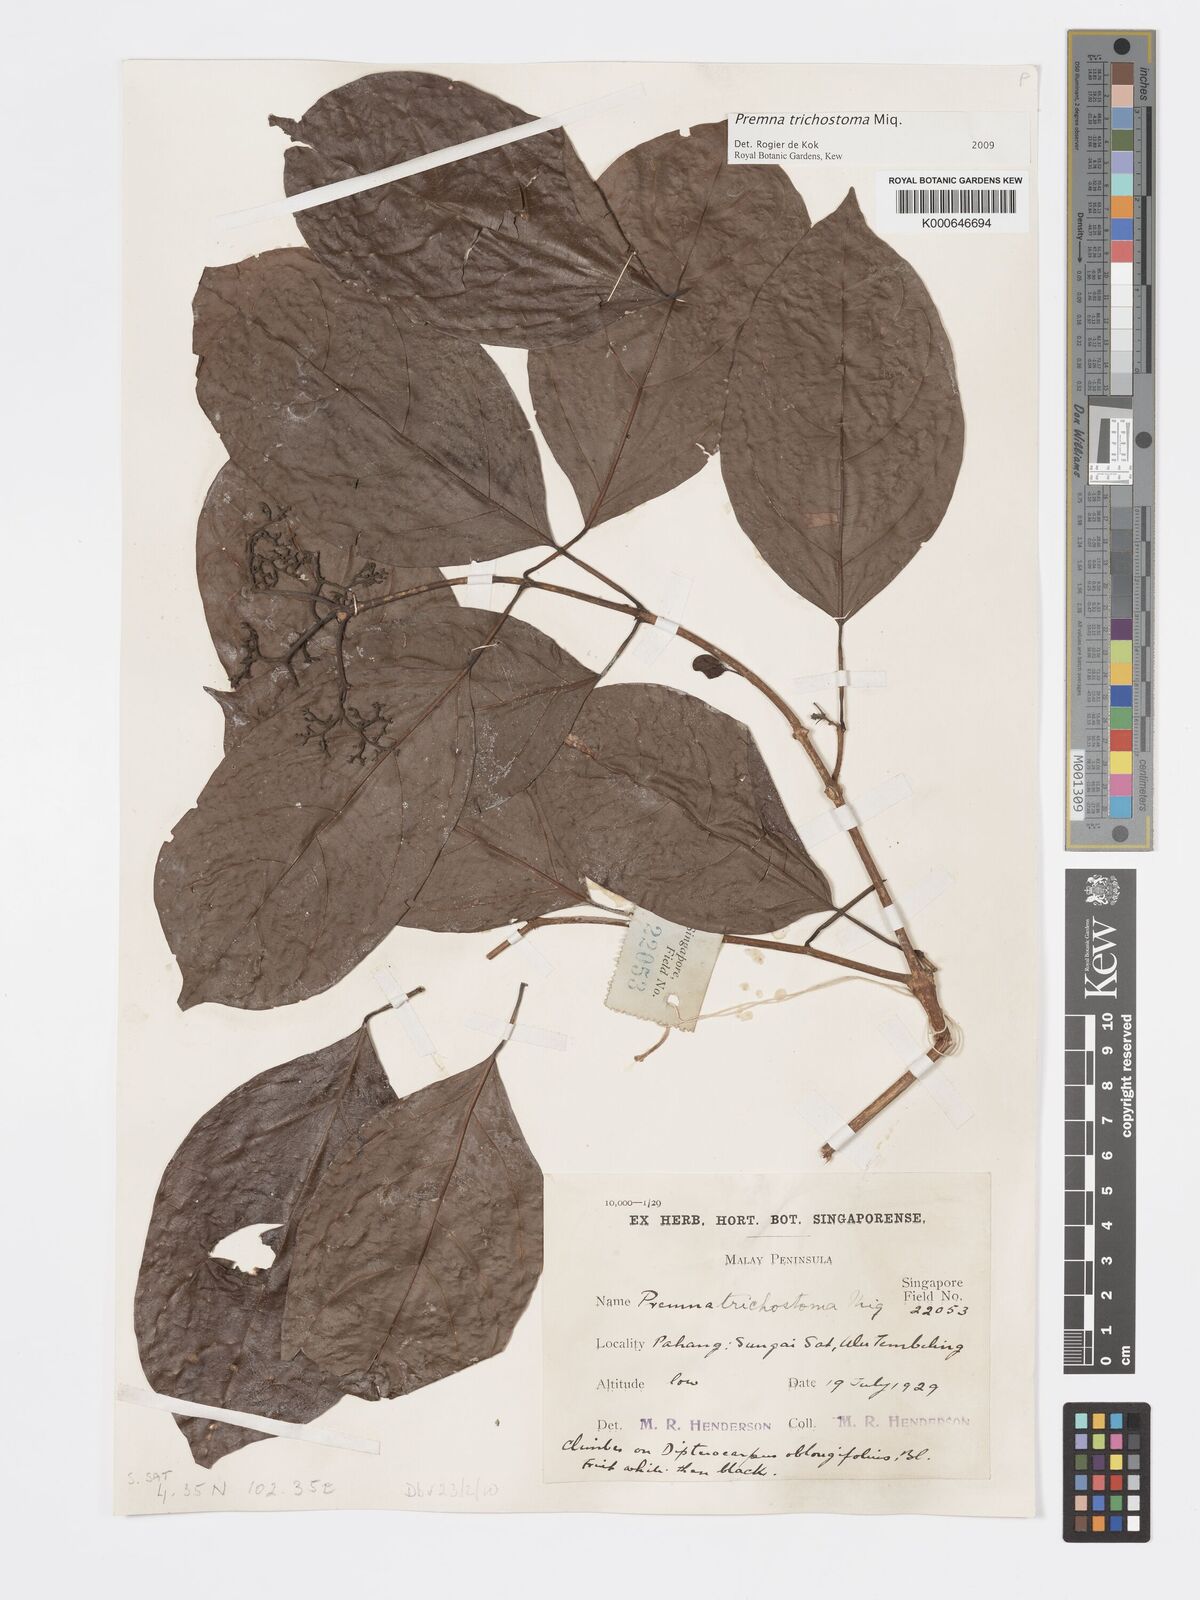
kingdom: Plantae
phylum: Tracheophyta
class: Magnoliopsida
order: Lamiales
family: Lamiaceae
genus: Premna
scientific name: Premna trichostoma
